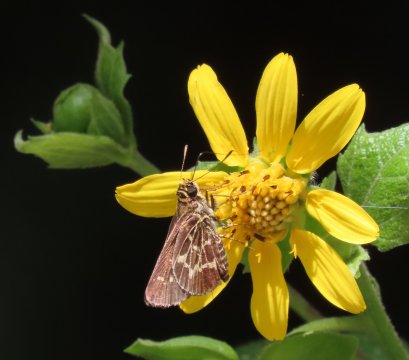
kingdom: Animalia
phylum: Arthropoda
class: Insecta
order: Lepidoptera
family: Hesperiidae
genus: Mastor
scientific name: Mastor aesculapius
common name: Lace-winged Roadside-Skipper
